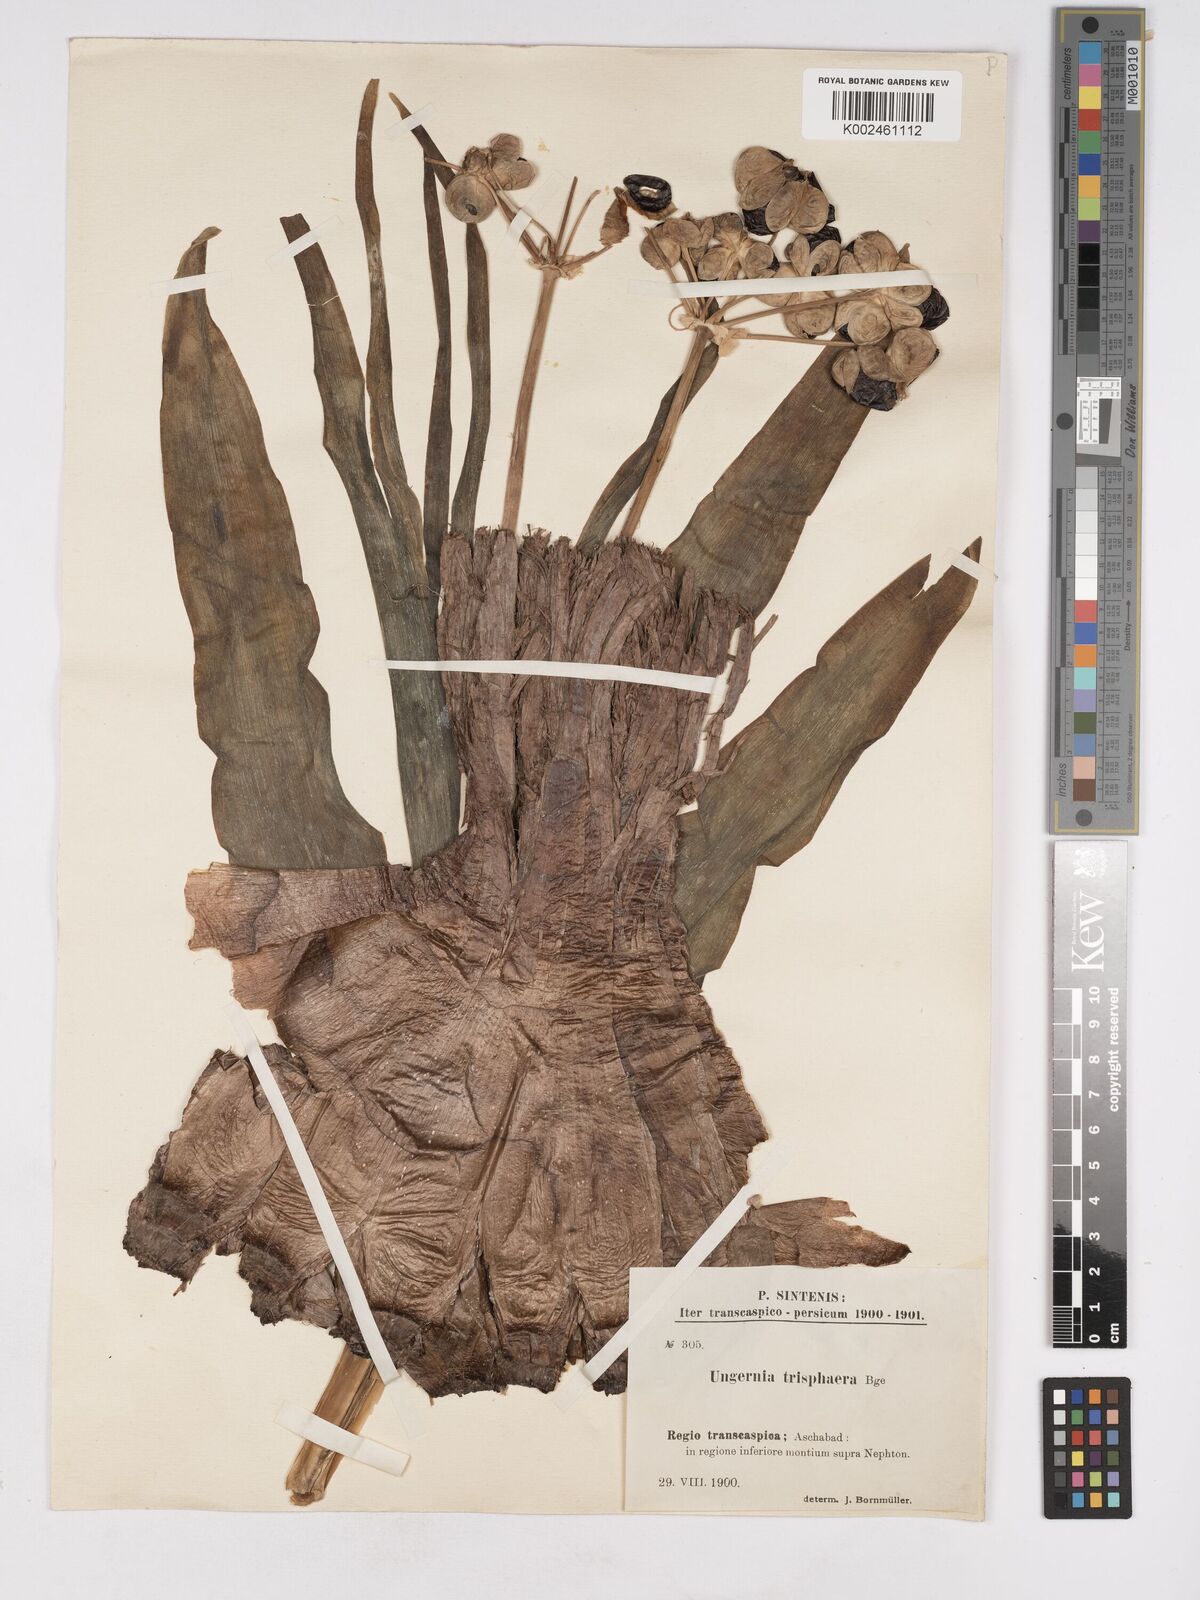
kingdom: Plantae
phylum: Tracheophyta
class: Liliopsida
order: Asparagales
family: Amaryllidaceae
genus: Ungernia
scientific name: Ungernia trisphaera
